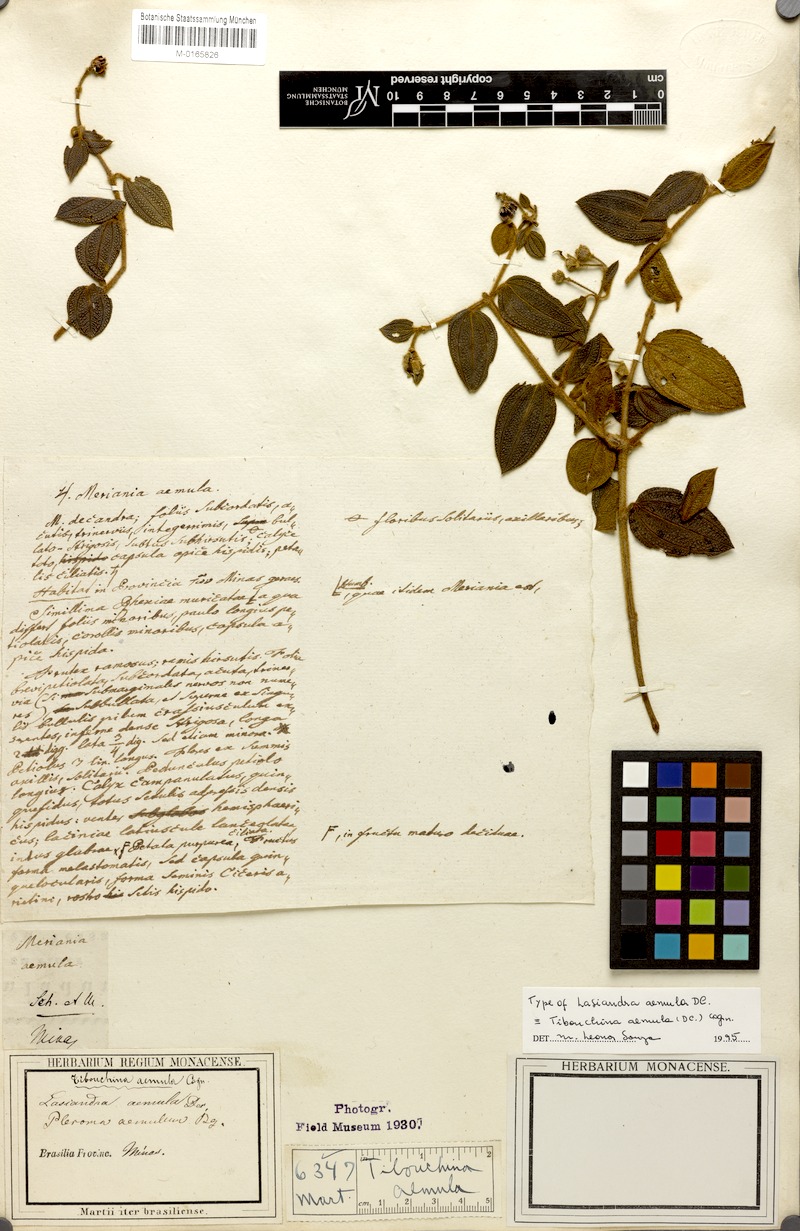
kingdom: Plantae
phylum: Tracheophyta
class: Magnoliopsida
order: Myrtales
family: Melastomataceae
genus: Pleroma
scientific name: Pleroma aemula
